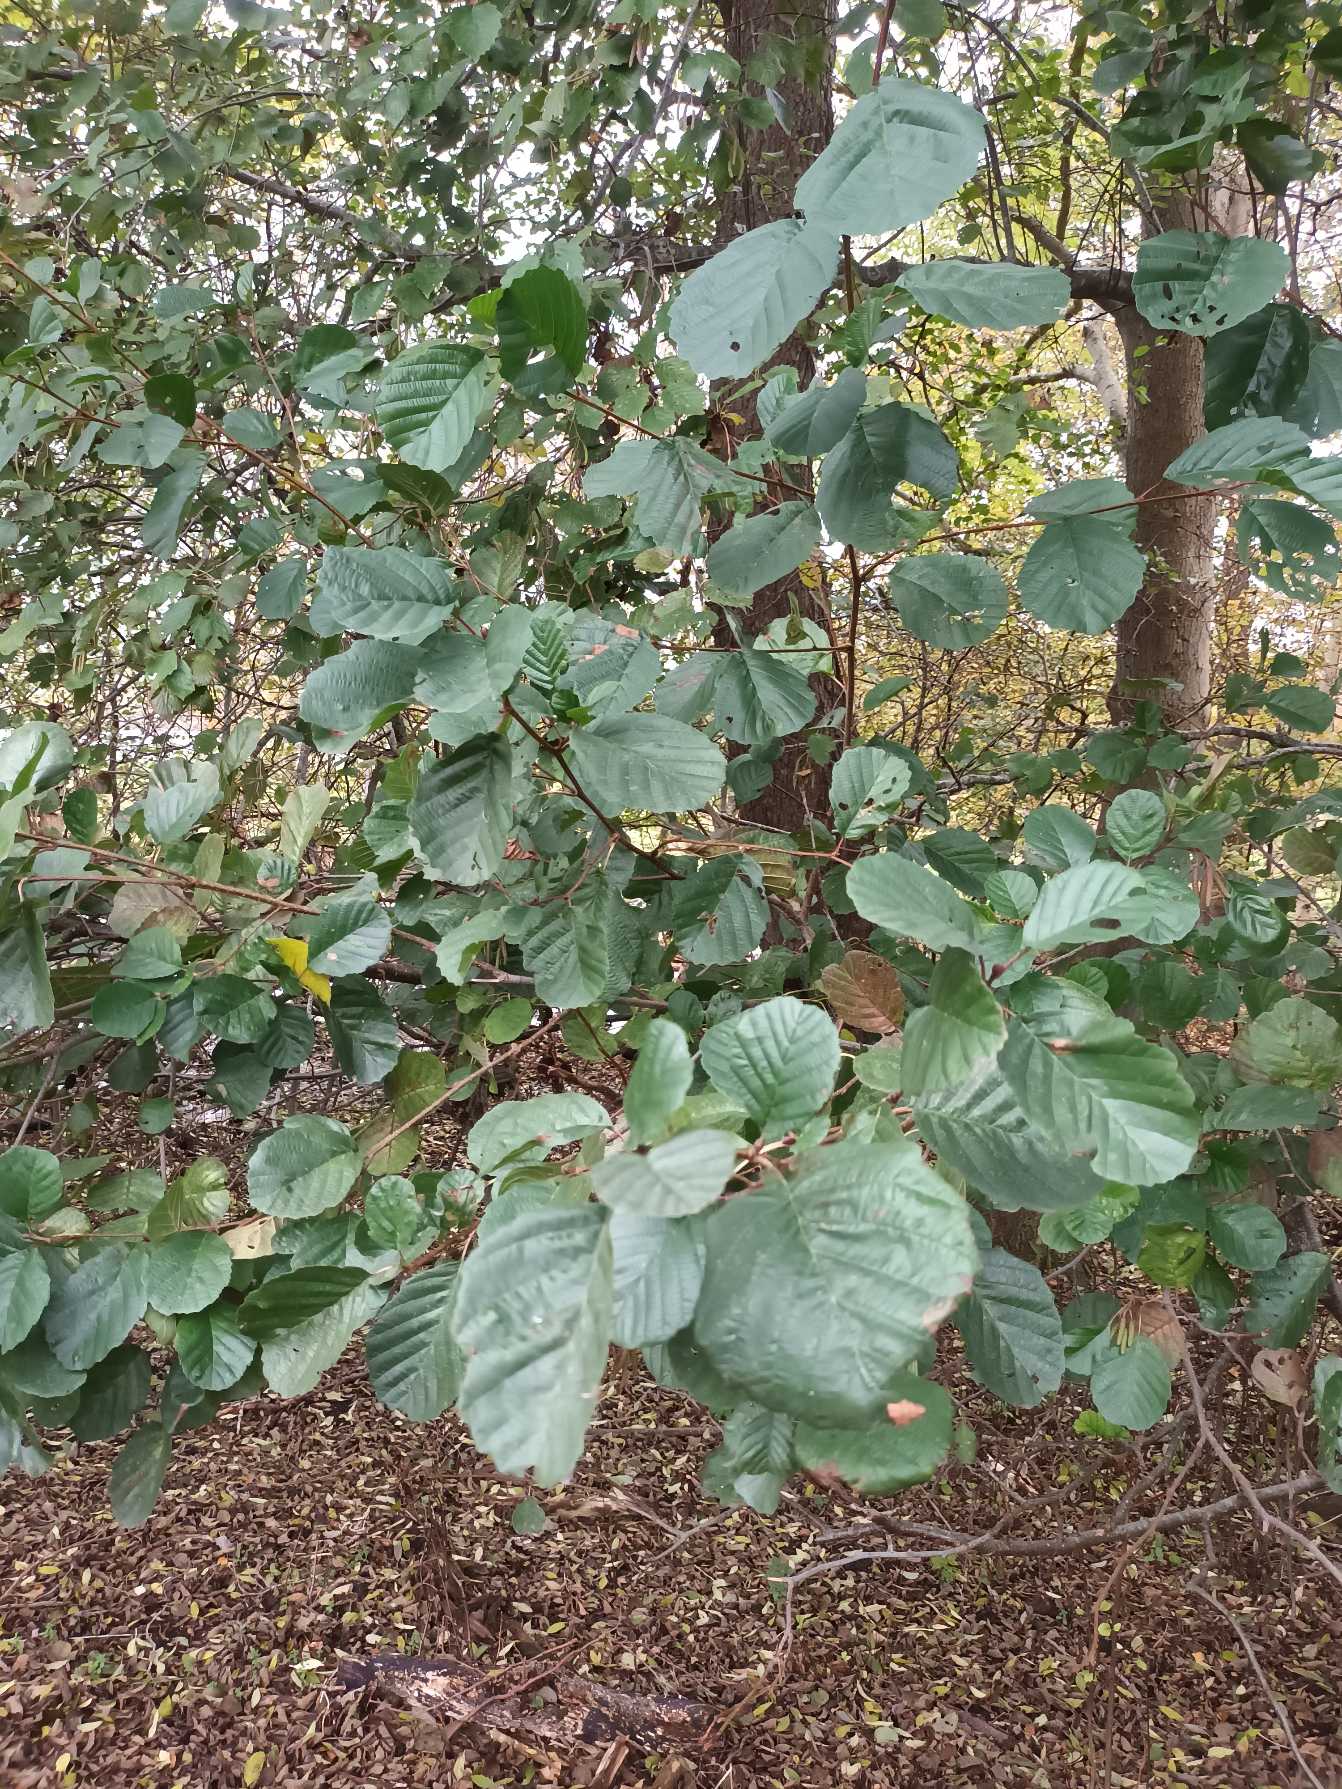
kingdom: Plantae
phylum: Tracheophyta
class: Magnoliopsida
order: Fagales
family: Betulaceae
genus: Alnus
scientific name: Alnus glutinosa
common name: Rød-el
